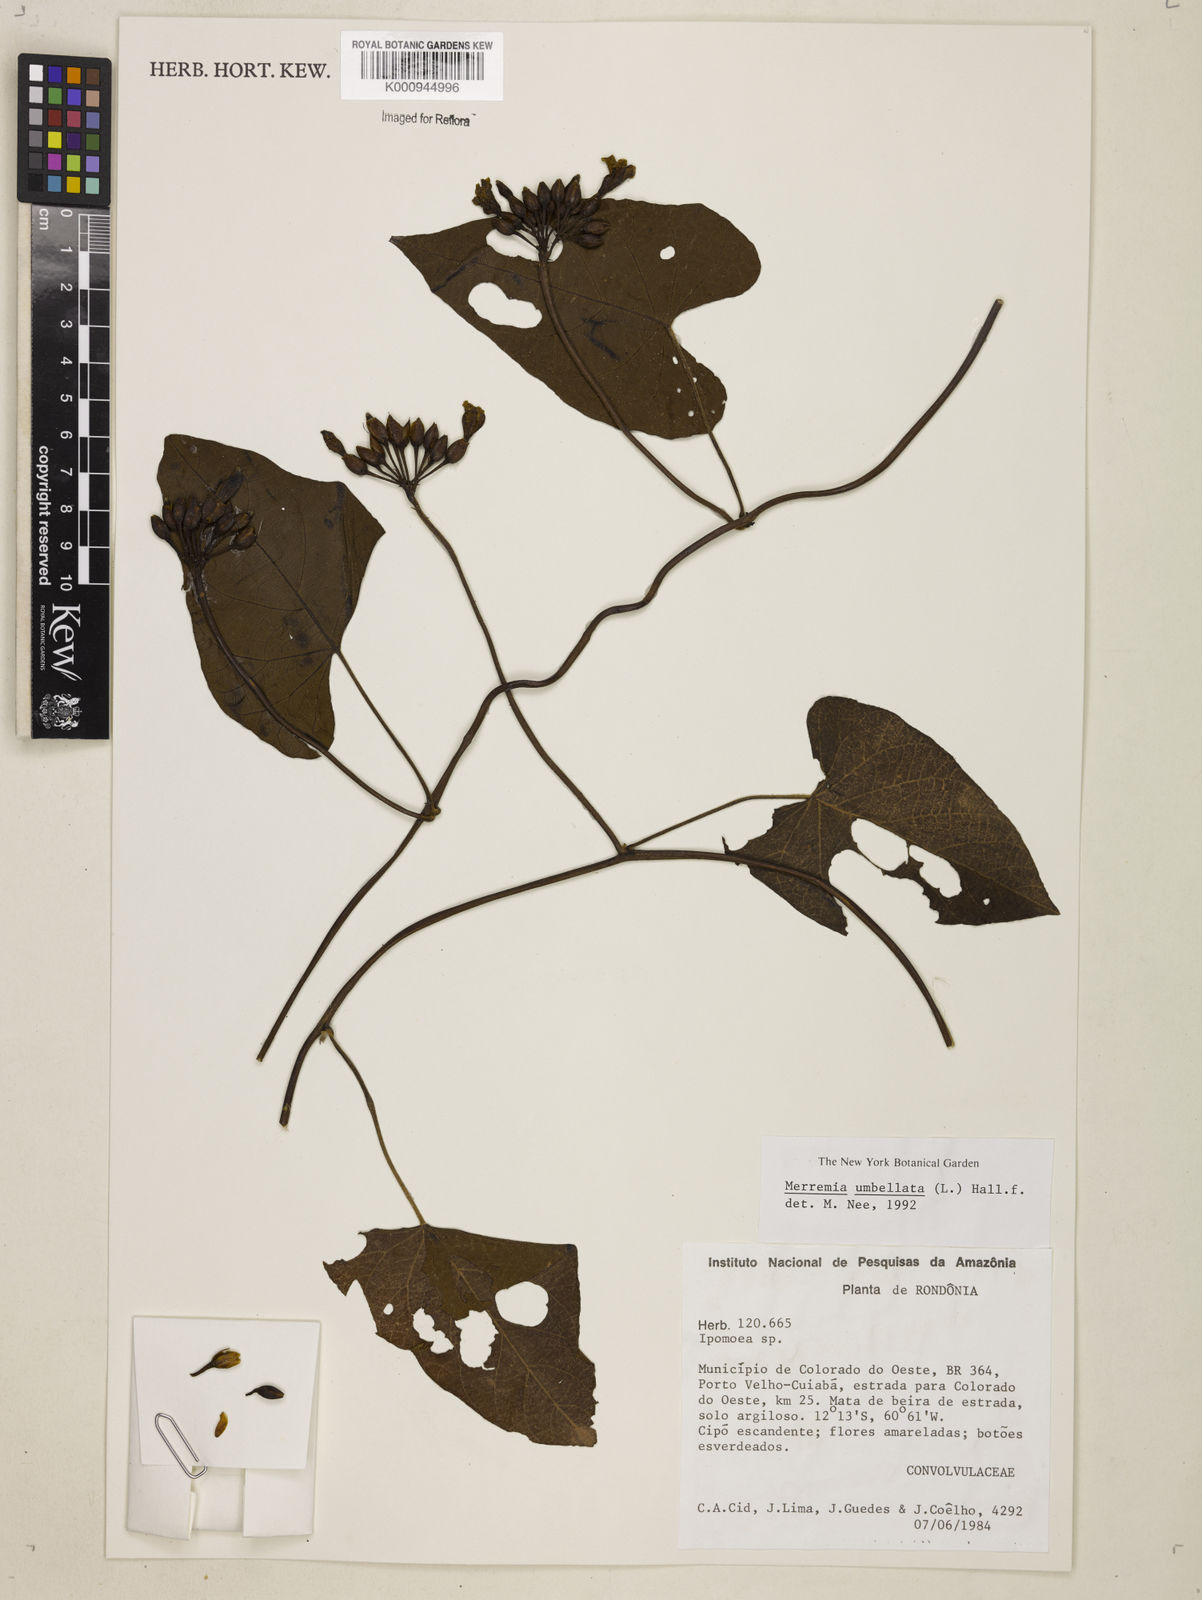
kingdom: Plantae
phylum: Tracheophyta
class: Magnoliopsida
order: Solanales
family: Convolvulaceae
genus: Camonea
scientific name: Camonea umbellata
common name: Hogvine
